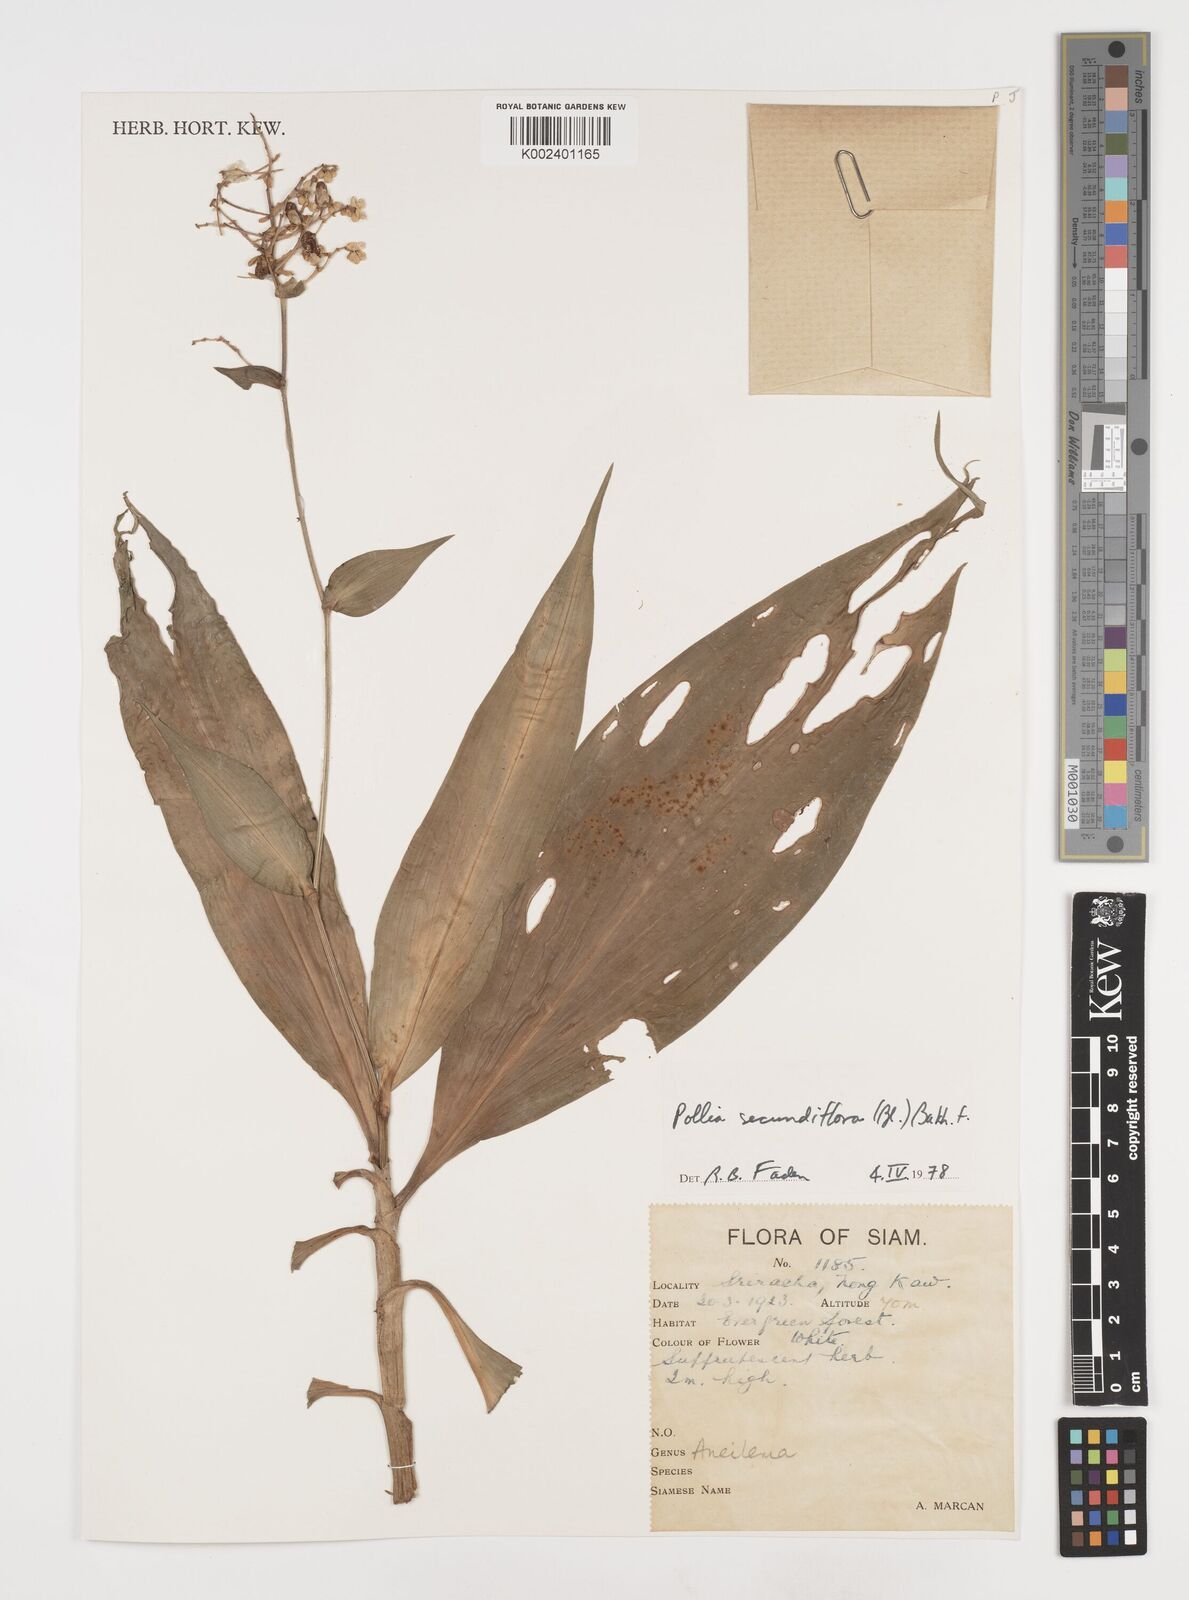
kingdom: Plantae
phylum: Tracheophyta
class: Liliopsida
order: Commelinales
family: Commelinaceae
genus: Pollia
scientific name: Pollia secundiflora
